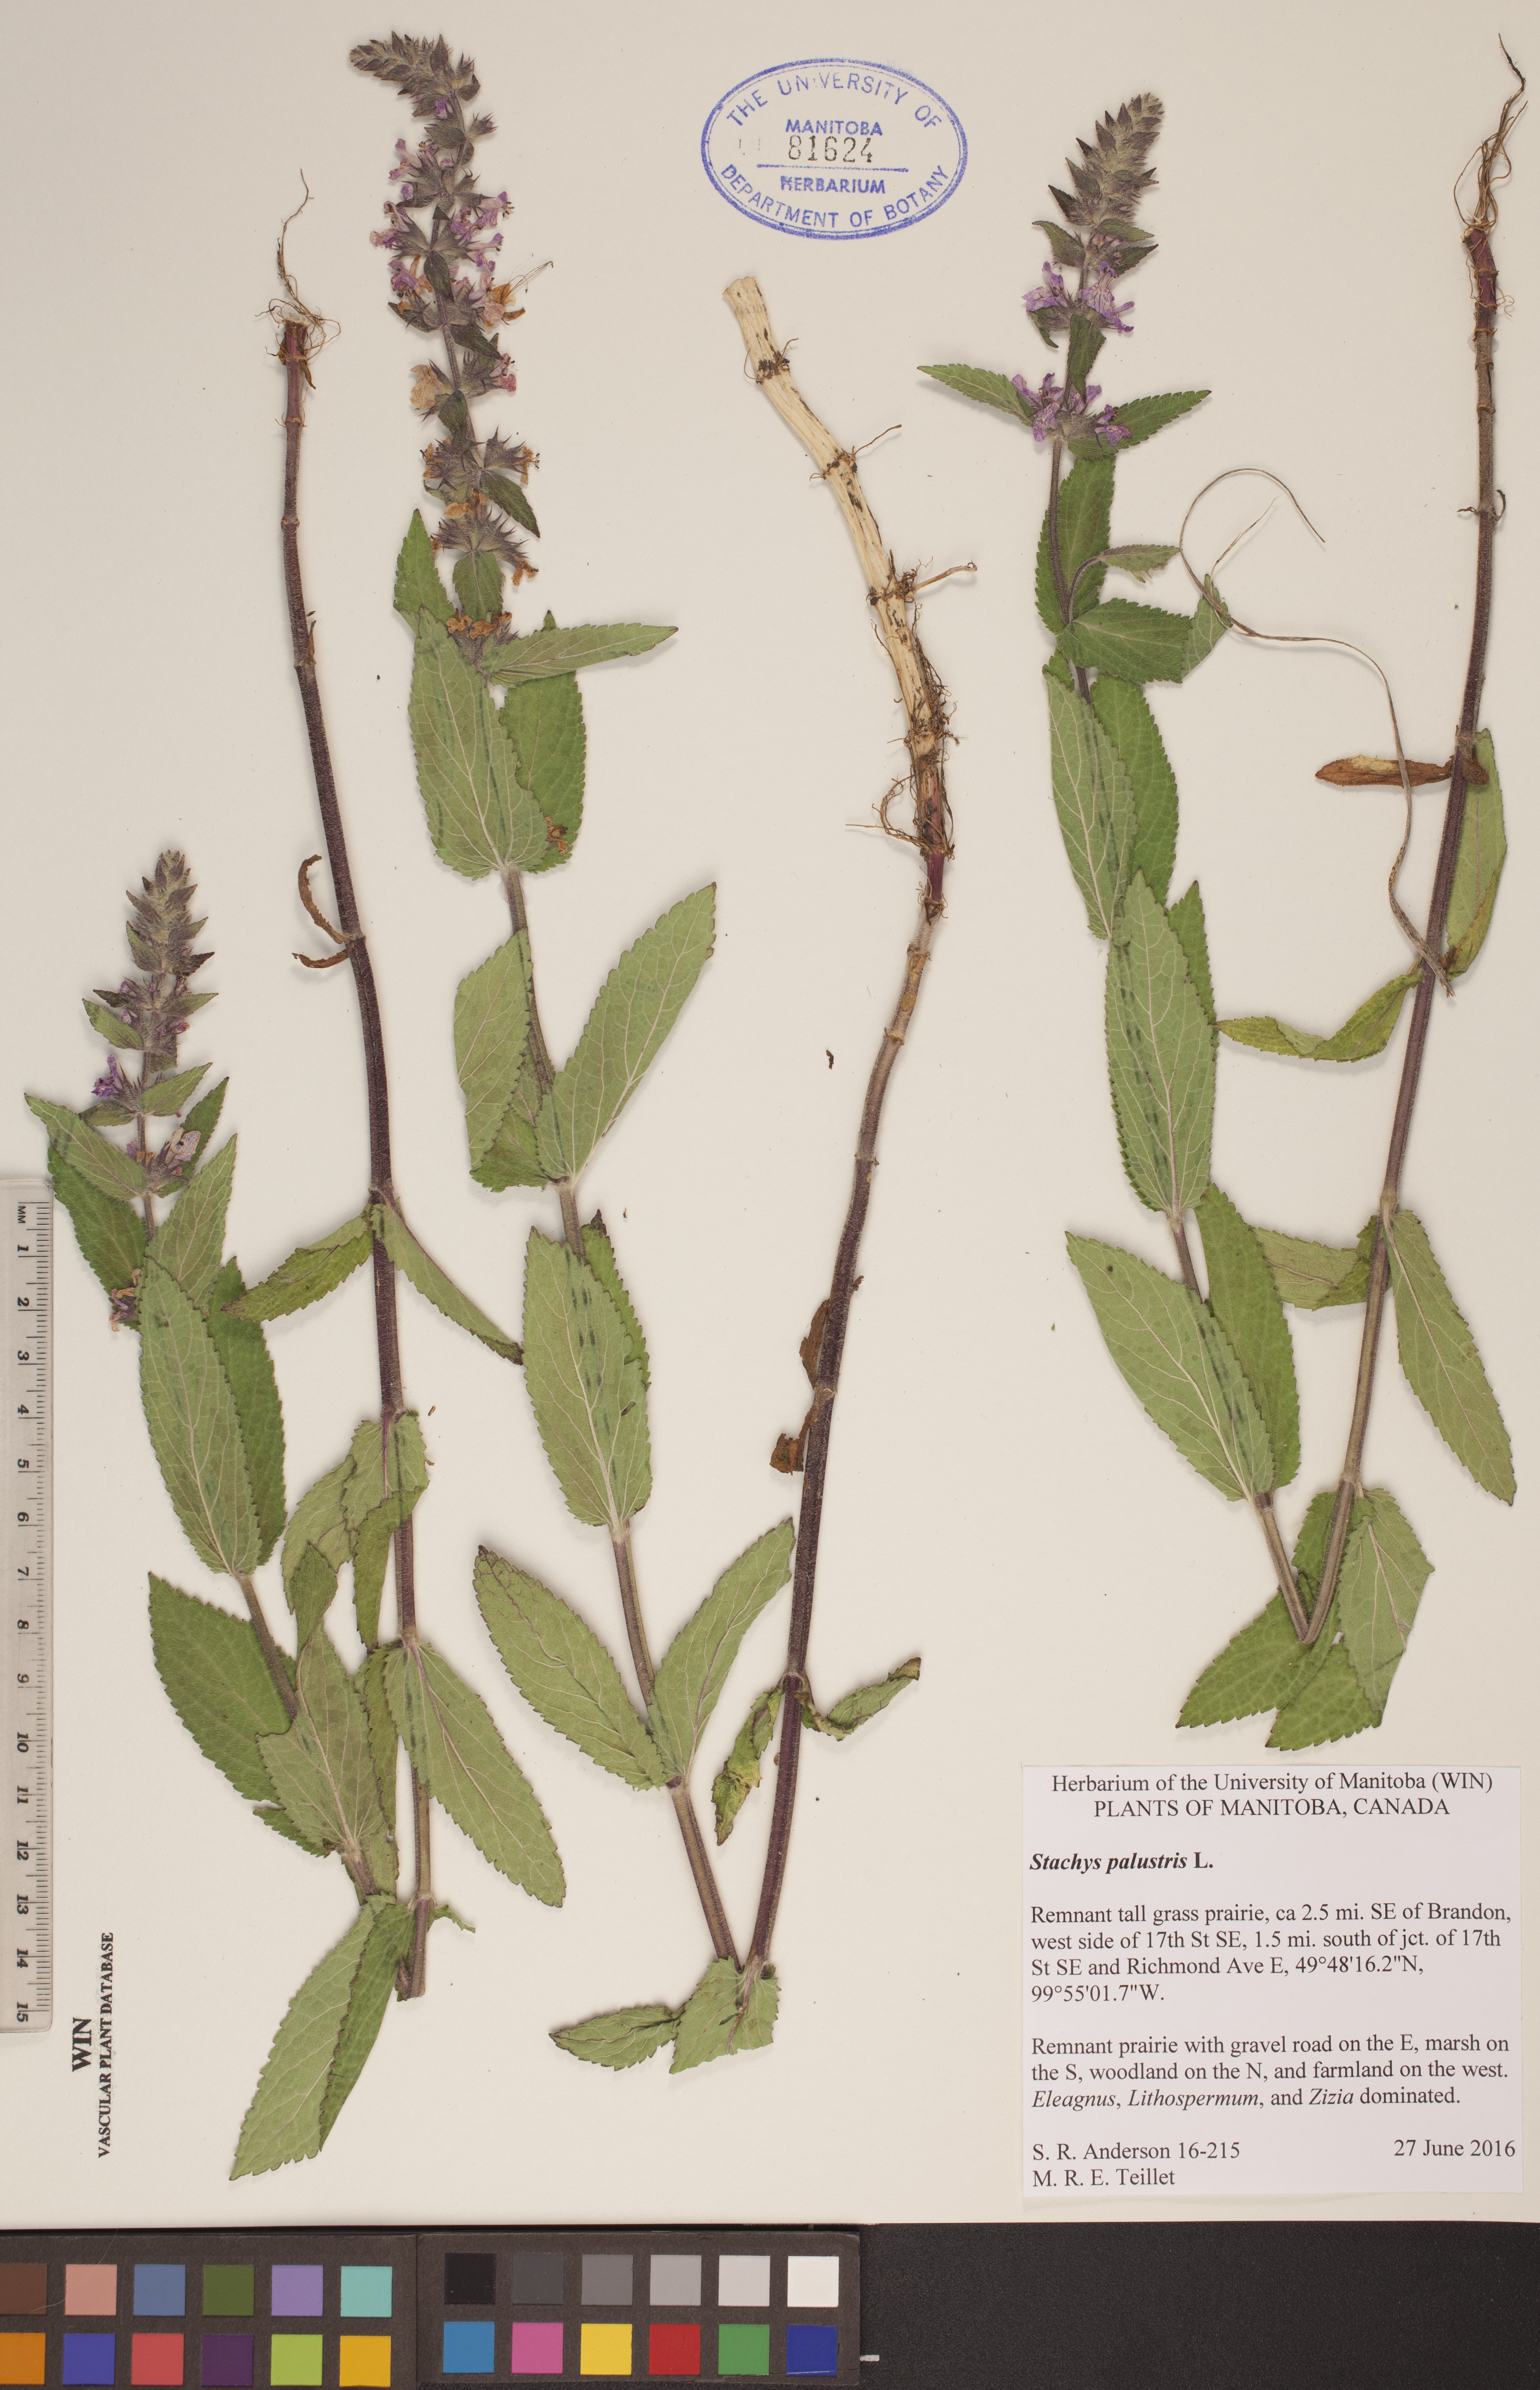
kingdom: Plantae
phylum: Tracheophyta
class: Magnoliopsida
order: Lamiales
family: Lamiaceae
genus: Stachys
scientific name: Stachys palustris
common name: Marsh woundwort
